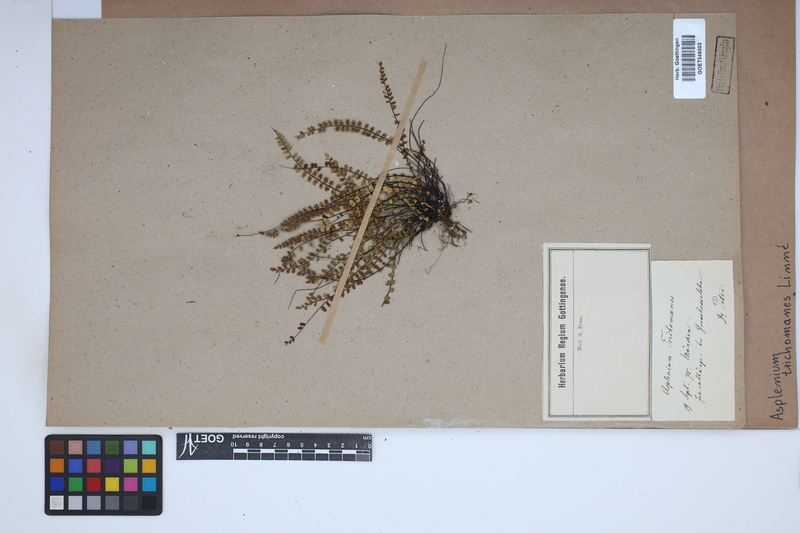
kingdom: Plantae
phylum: Tracheophyta
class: Polypodiopsida
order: Polypodiales
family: Aspleniaceae
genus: Asplenium
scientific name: Asplenium trichomanes
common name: Maidenhair spleenwort
